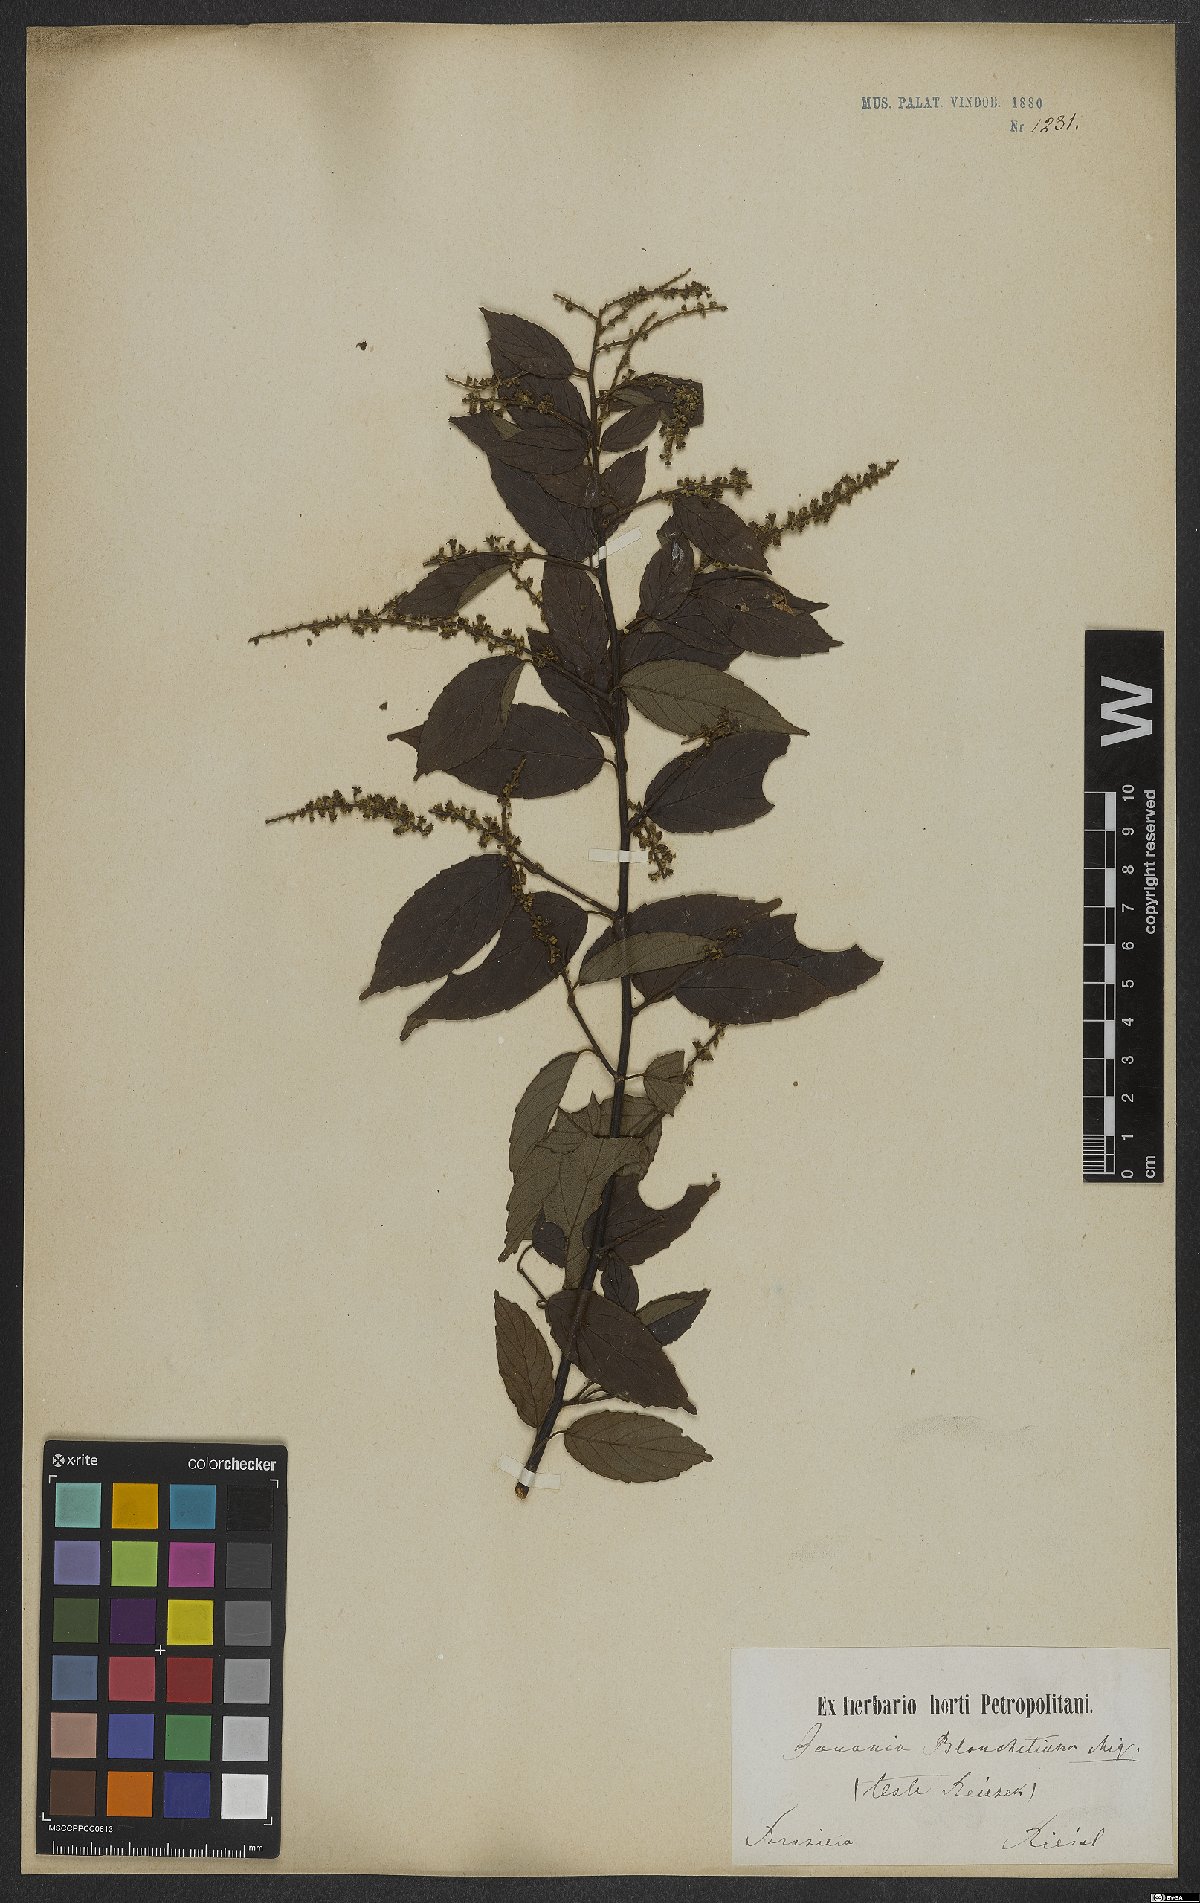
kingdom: Plantae
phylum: Tracheophyta
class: Magnoliopsida
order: Rosales
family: Rhamnaceae
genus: Gouania
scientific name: Gouania blanchetiana
